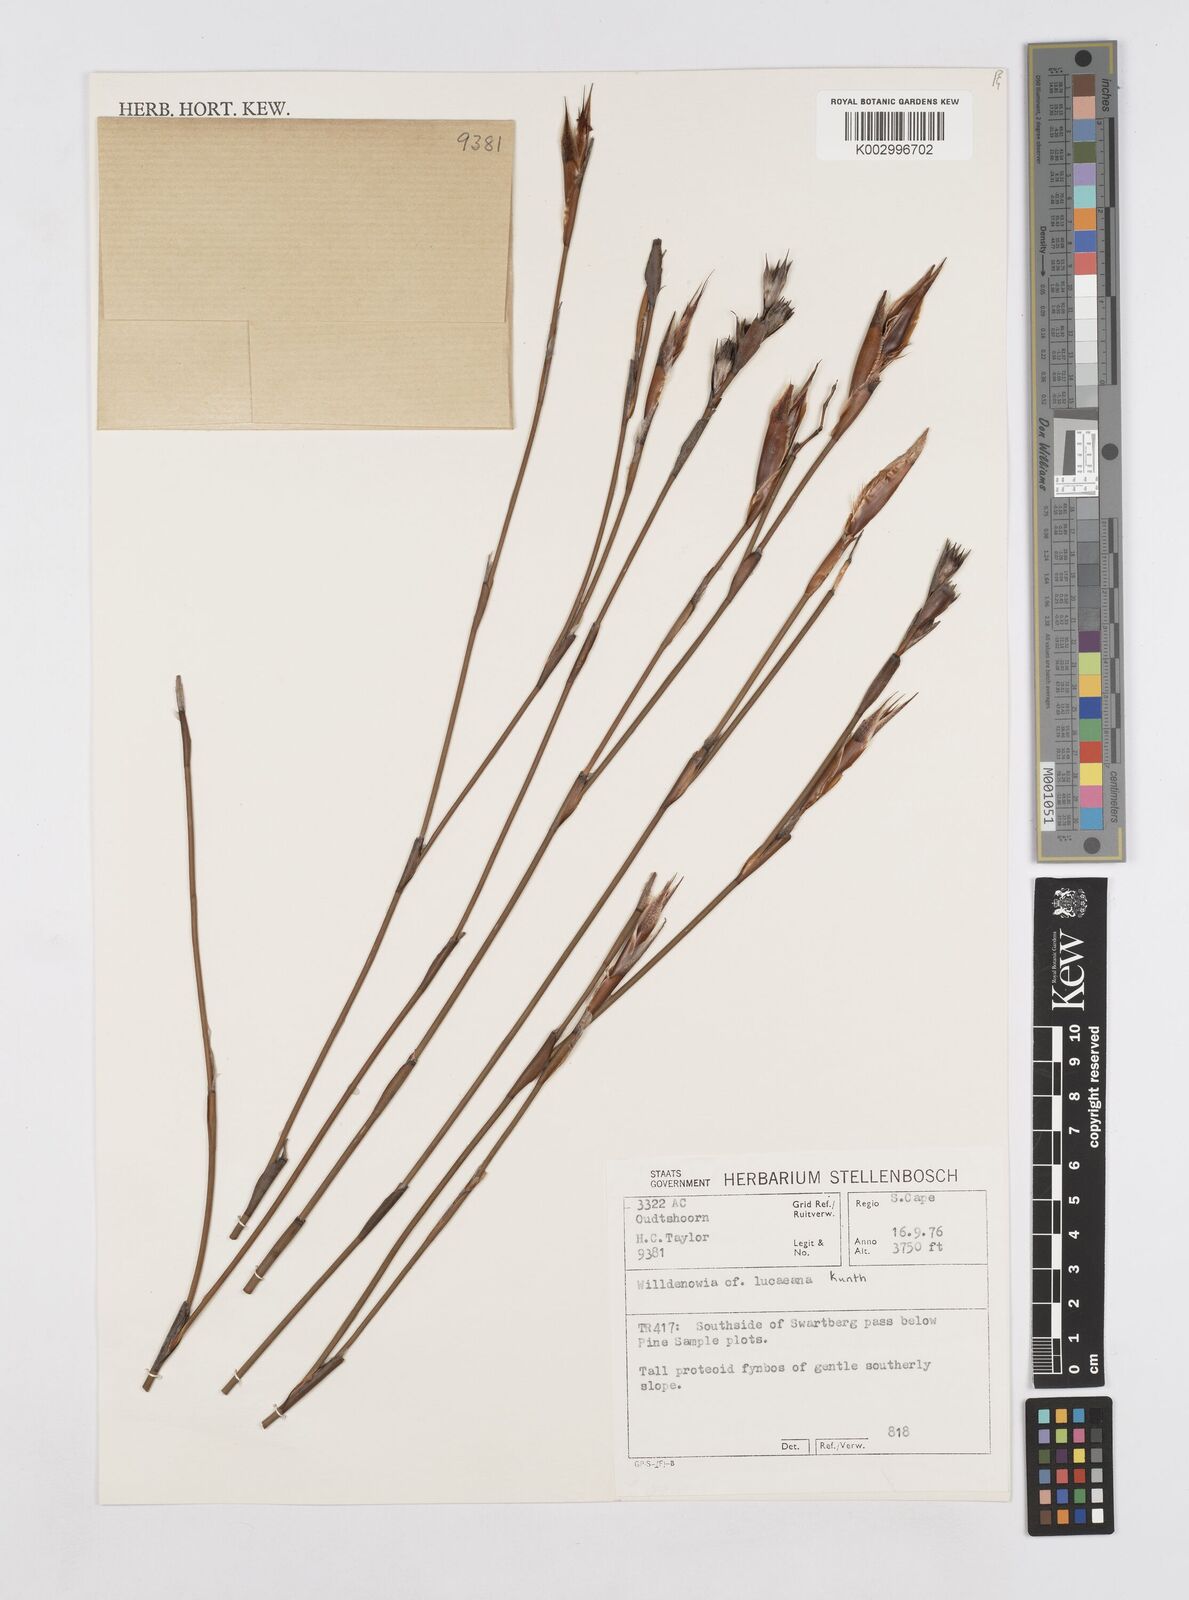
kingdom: Plantae
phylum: Tracheophyta
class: Liliopsida
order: Poales
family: Restionaceae
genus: Willdenowia
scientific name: Willdenowia glomerata
